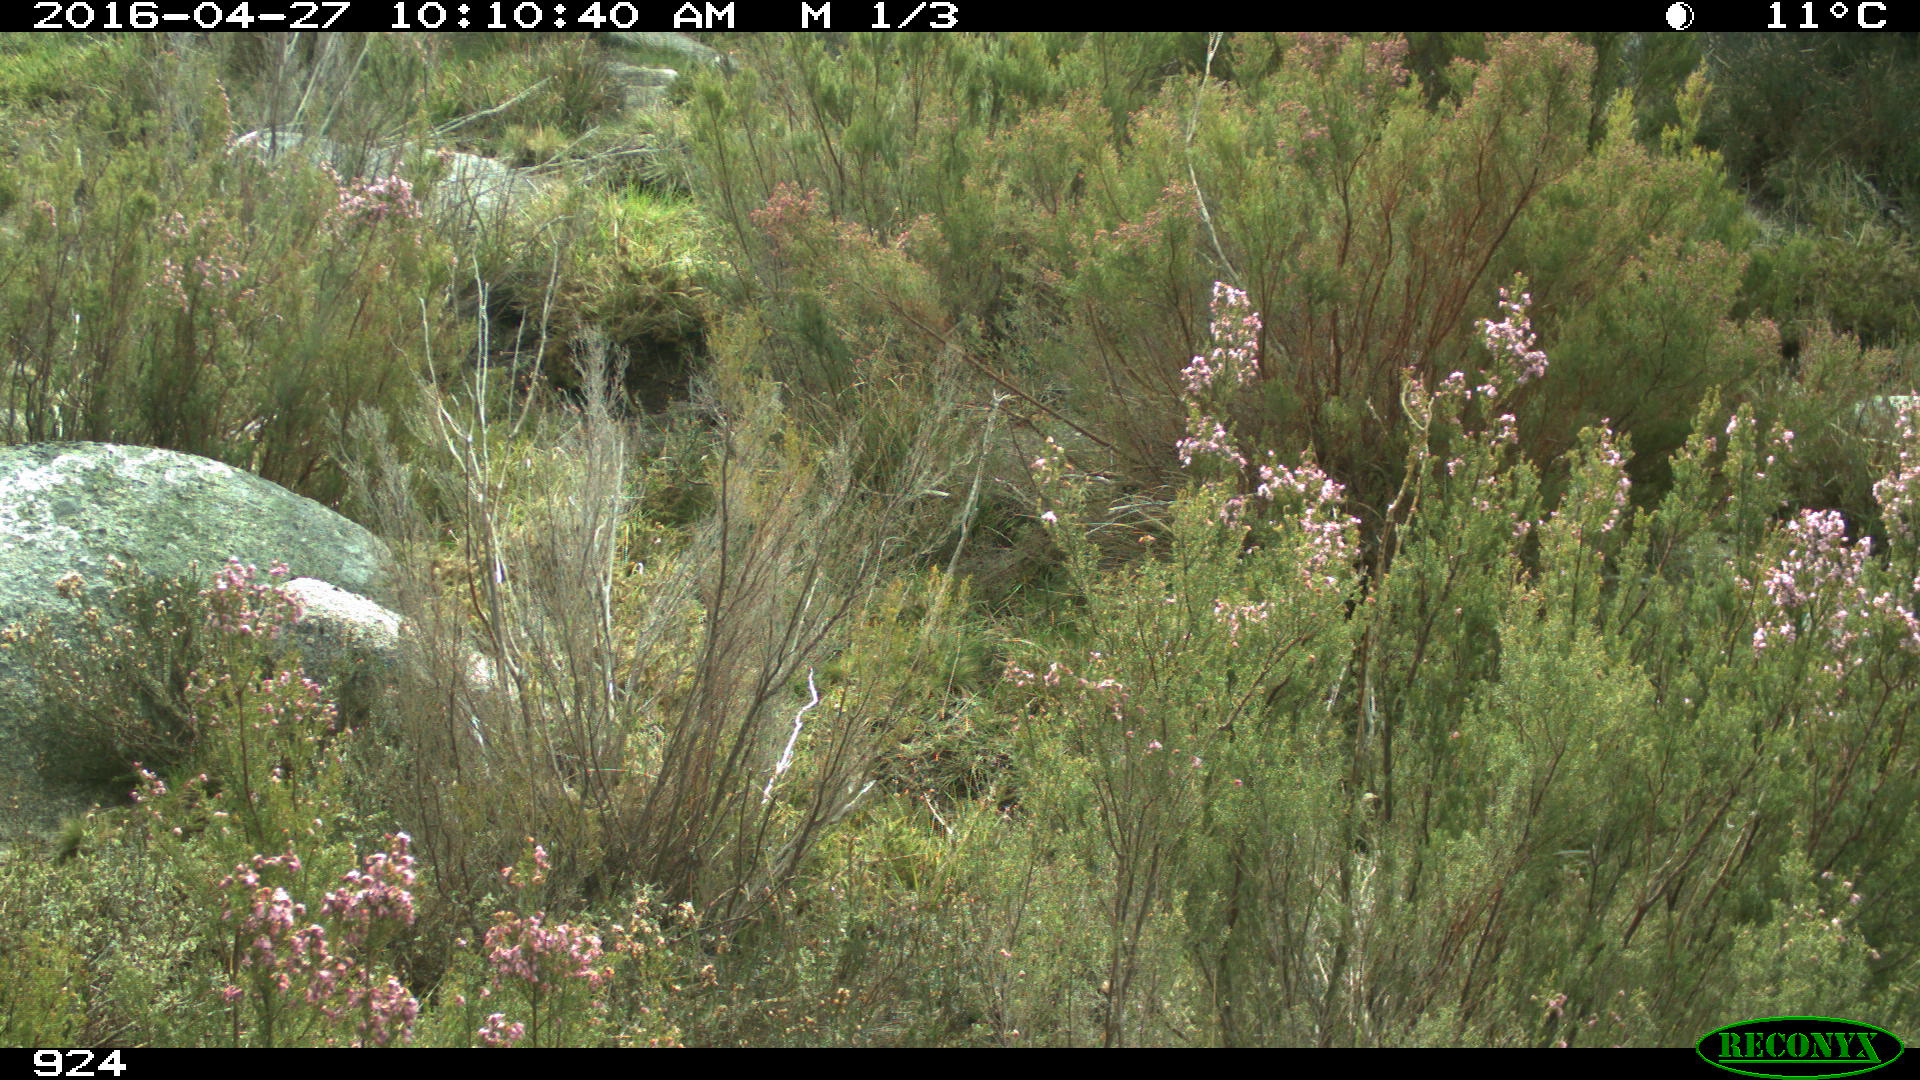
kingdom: Animalia
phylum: Chordata
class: Mammalia
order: Artiodactyla
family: Bovidae
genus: Bos
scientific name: Bos taurus
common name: Domesticated cattle
